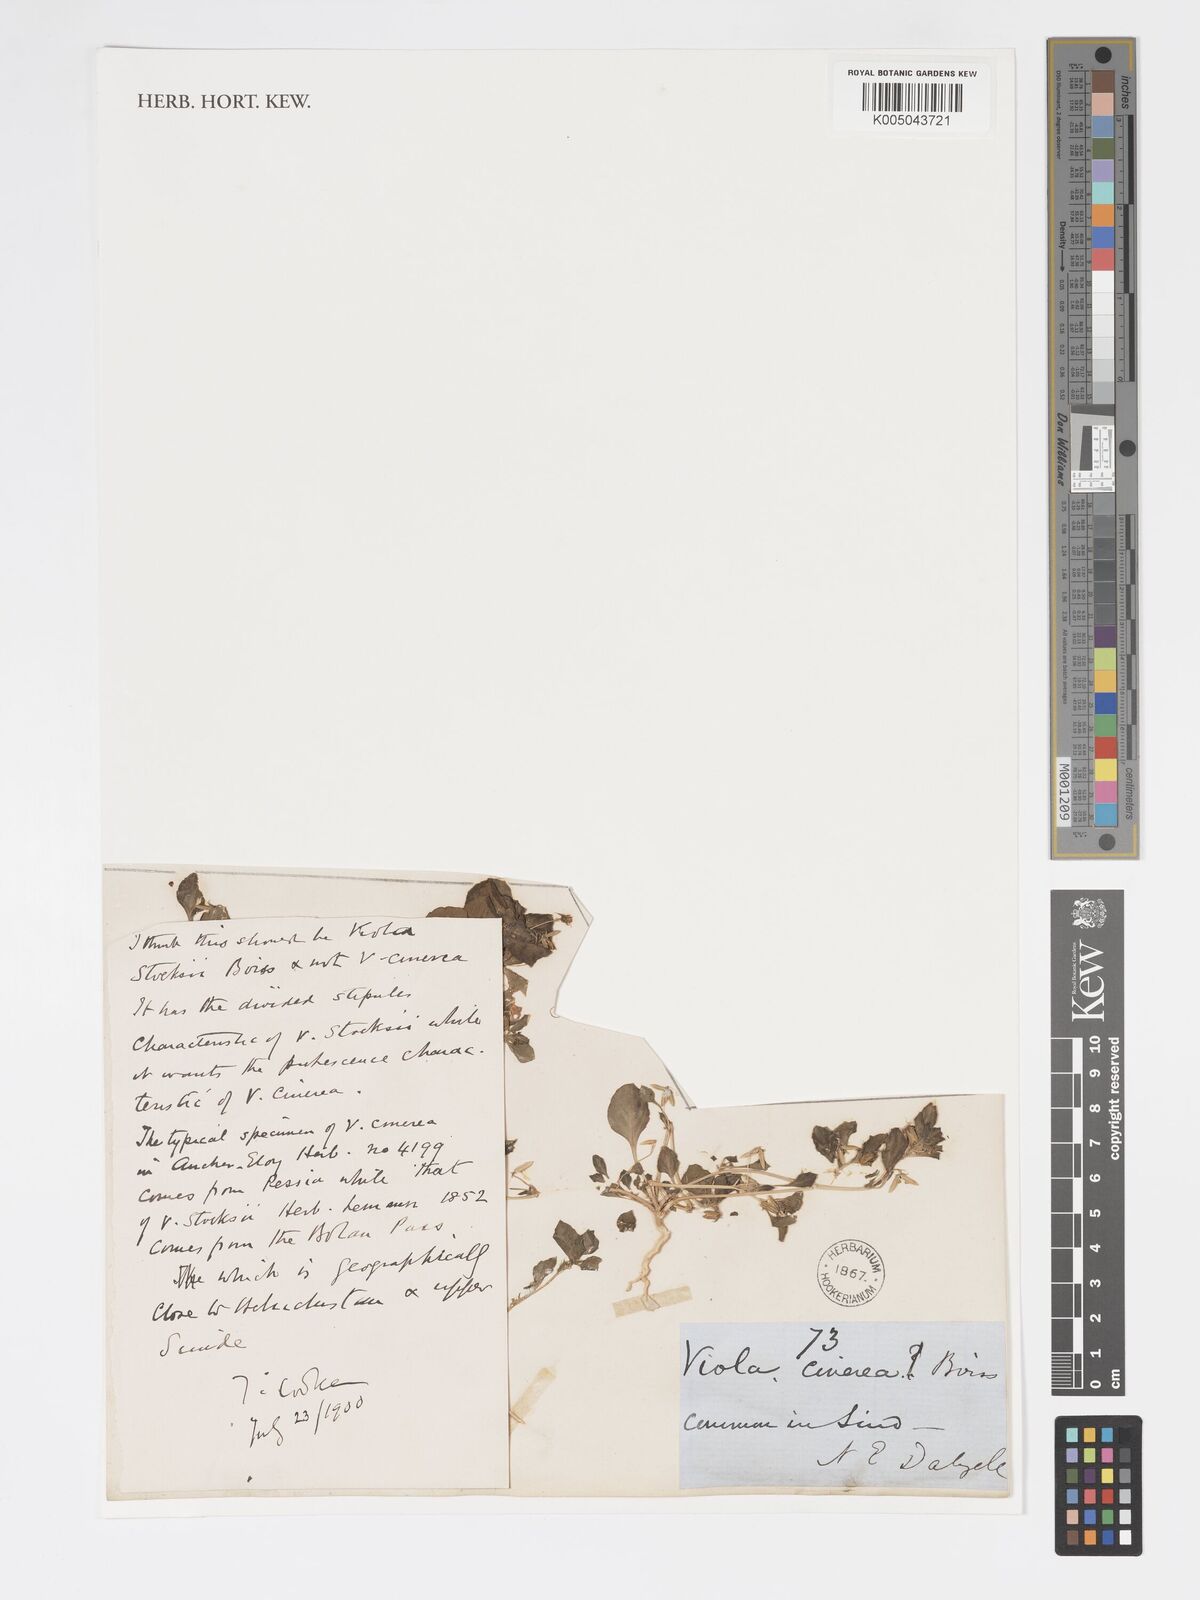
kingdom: Plantae
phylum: Tracheophyta
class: Magnoliopsida
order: Malpighiales
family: Violaceae
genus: Viola
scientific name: Viola cinerea
